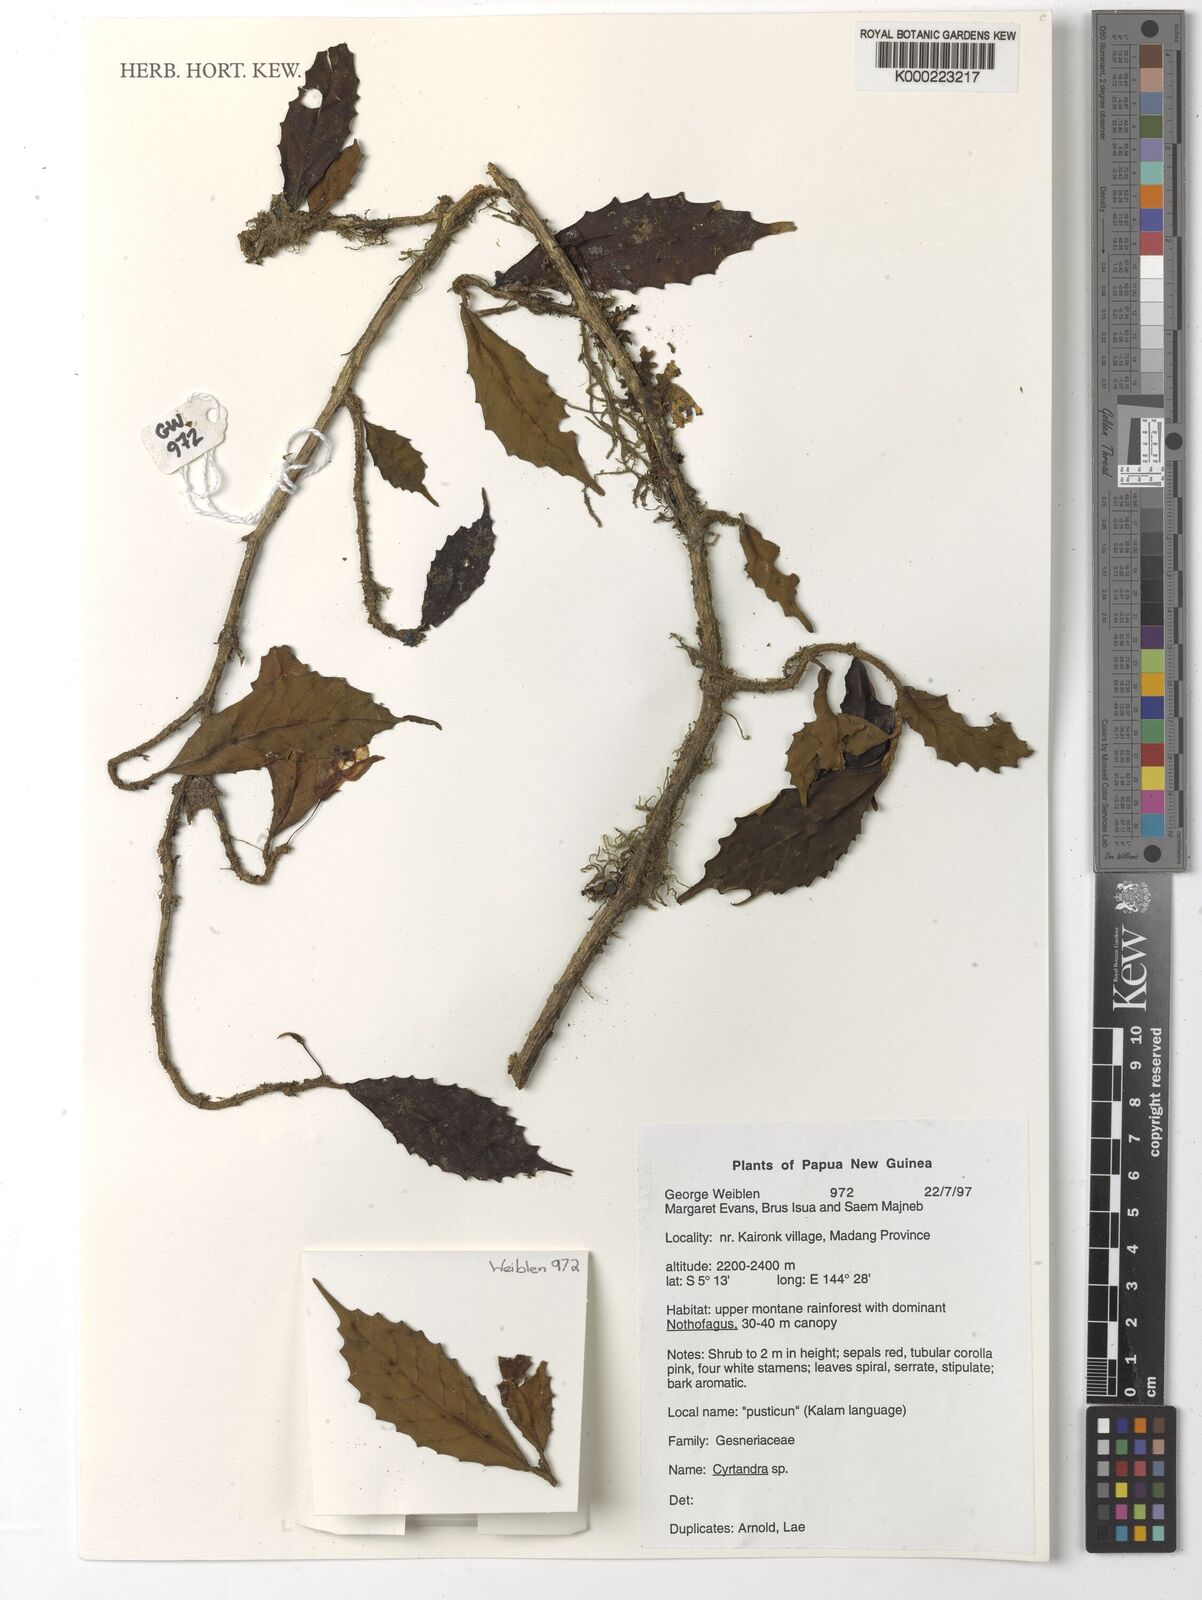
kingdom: Plantae
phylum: Tracheophyta
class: Magnoliopsida
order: Lamiales
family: Gesneriaceae
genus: Cyrtandra
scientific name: Cyrtandra
